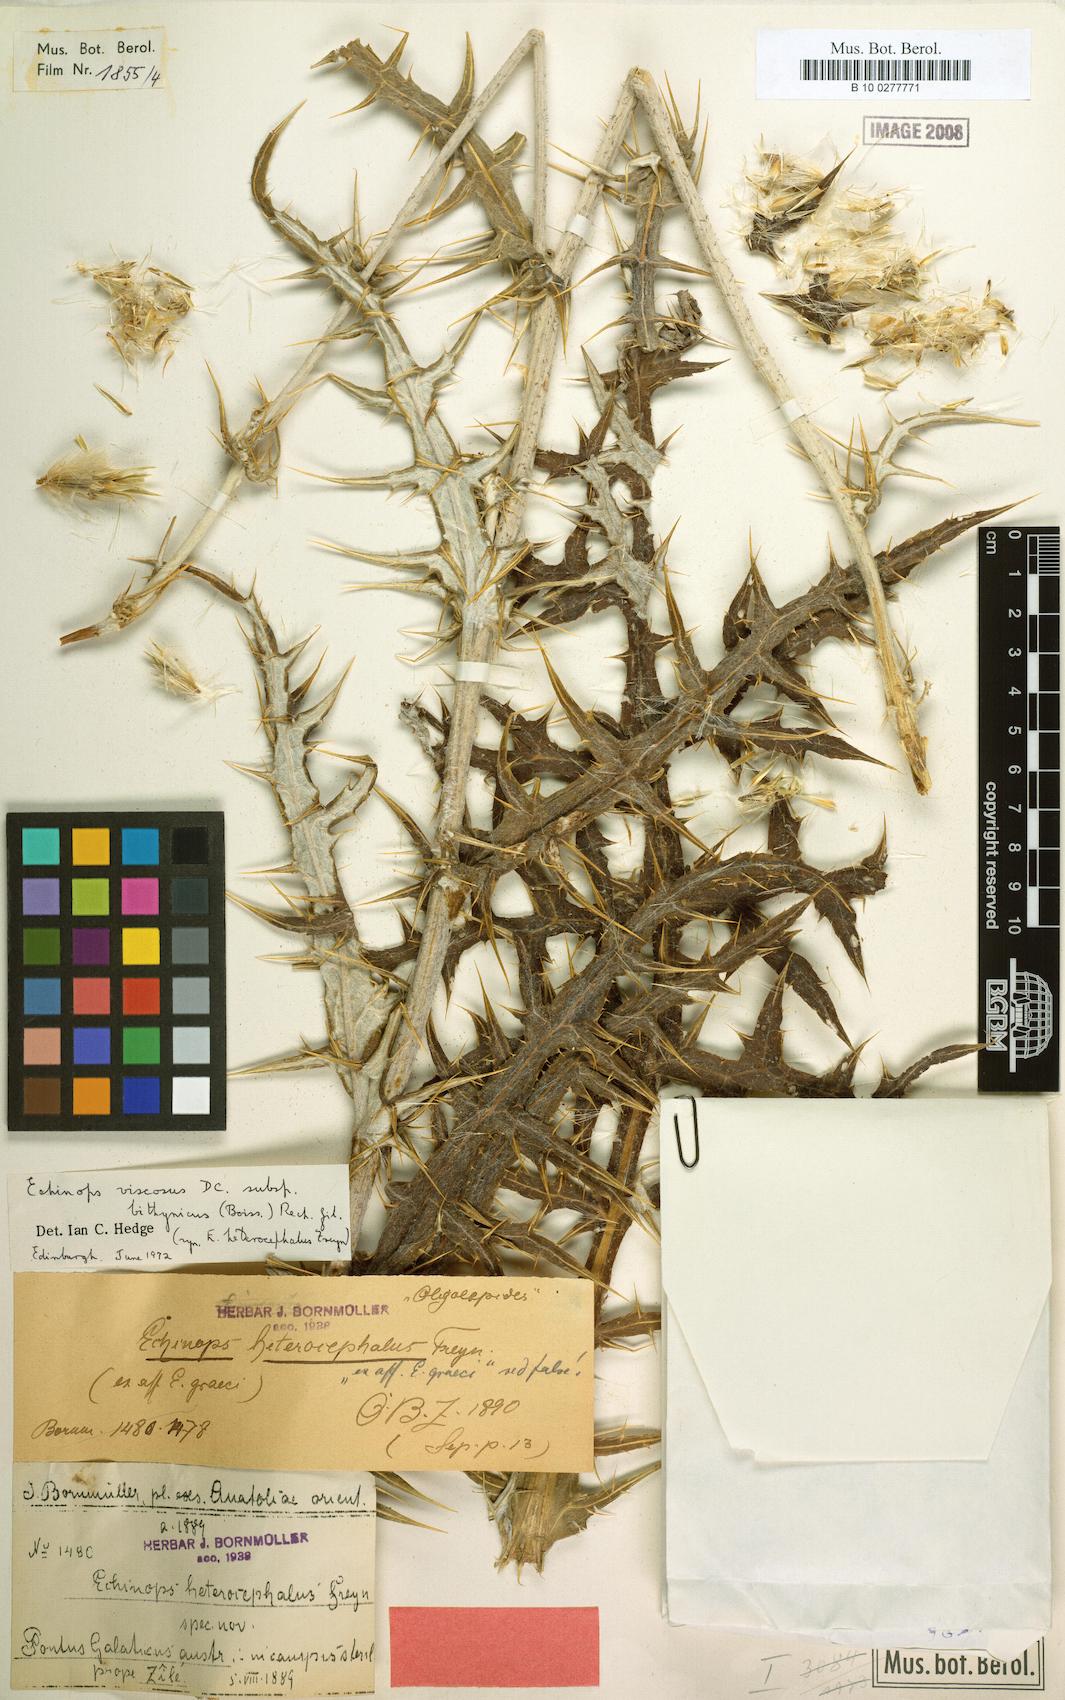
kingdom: Plantae
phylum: Tracheophyta
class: Magnoliopsida
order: Asterales
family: Asteraceae
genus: Echinops
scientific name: Echinops spinosissimus
